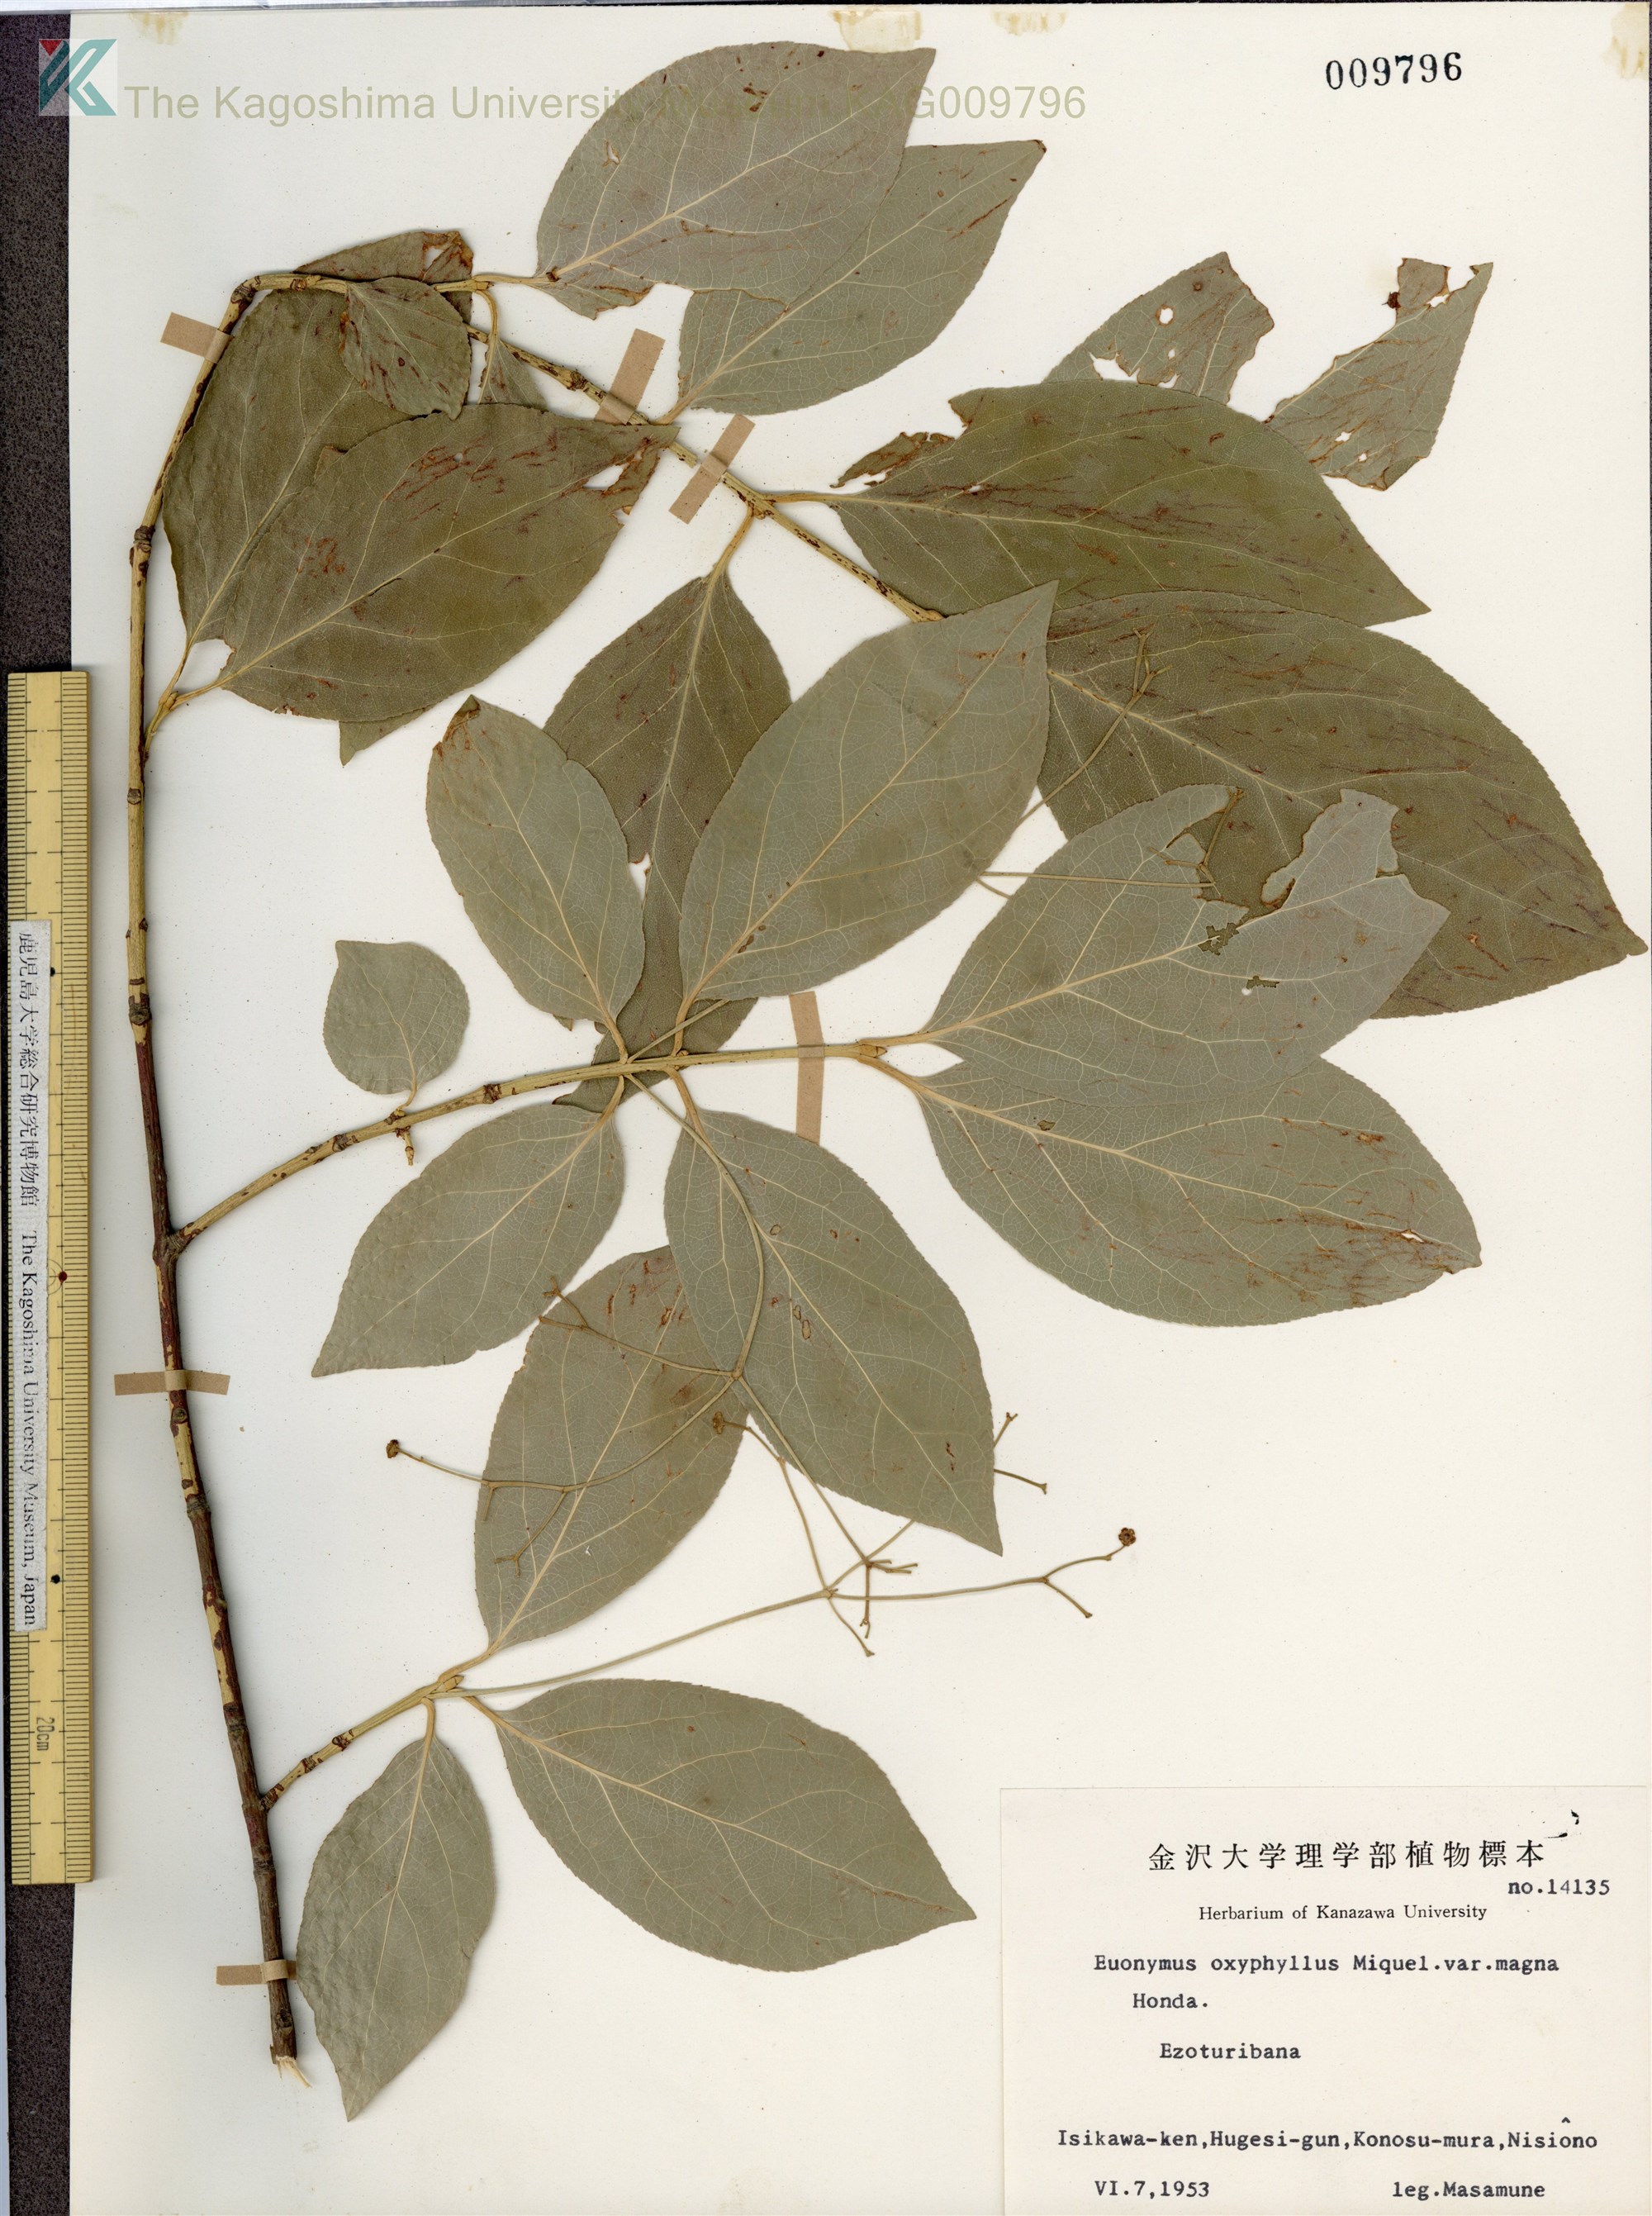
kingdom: Plantae
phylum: Tracheophyta
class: Magnoliopsida
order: Celastrales
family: Celastraceae
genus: Euonymus
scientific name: Euonymus oxyphyllus
